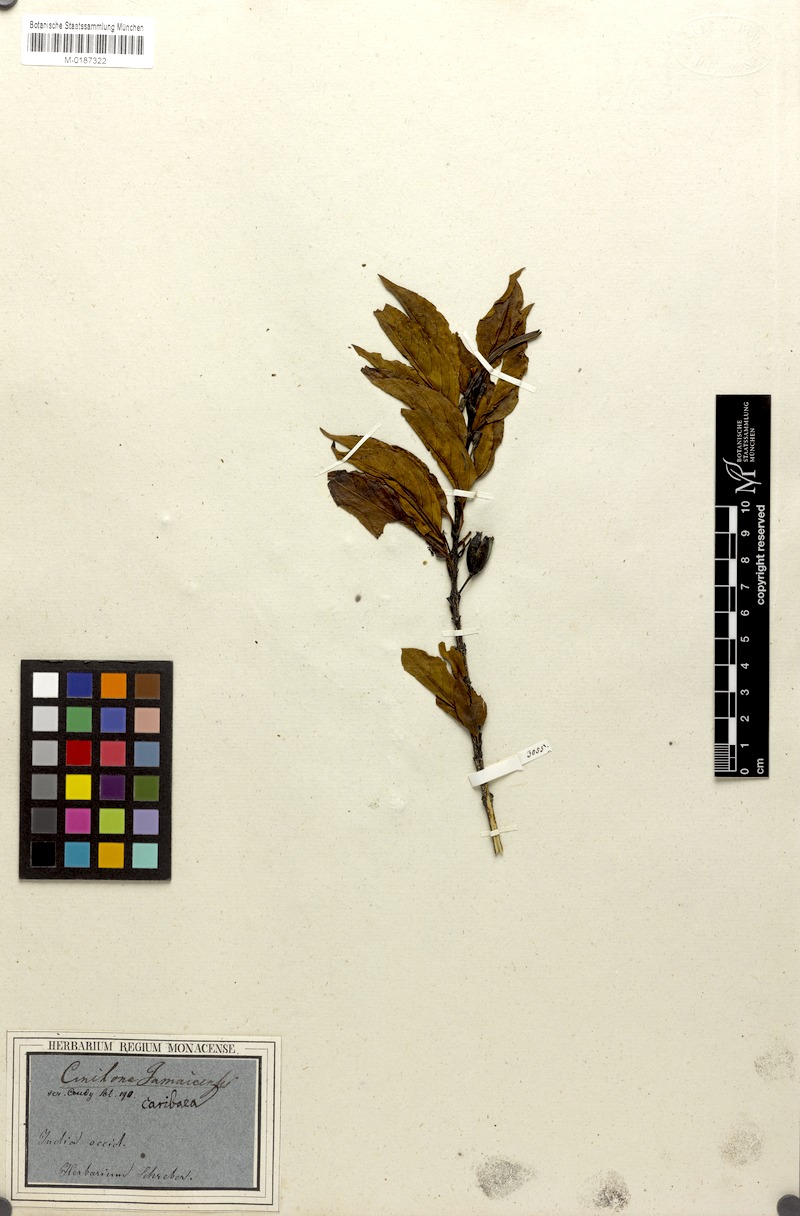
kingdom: Plantae
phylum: Tracheophyta
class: Magnoliopsida
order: Gentianales
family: Rubiaceae
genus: Exostema
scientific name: Exostema caribaeum
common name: Princewood
